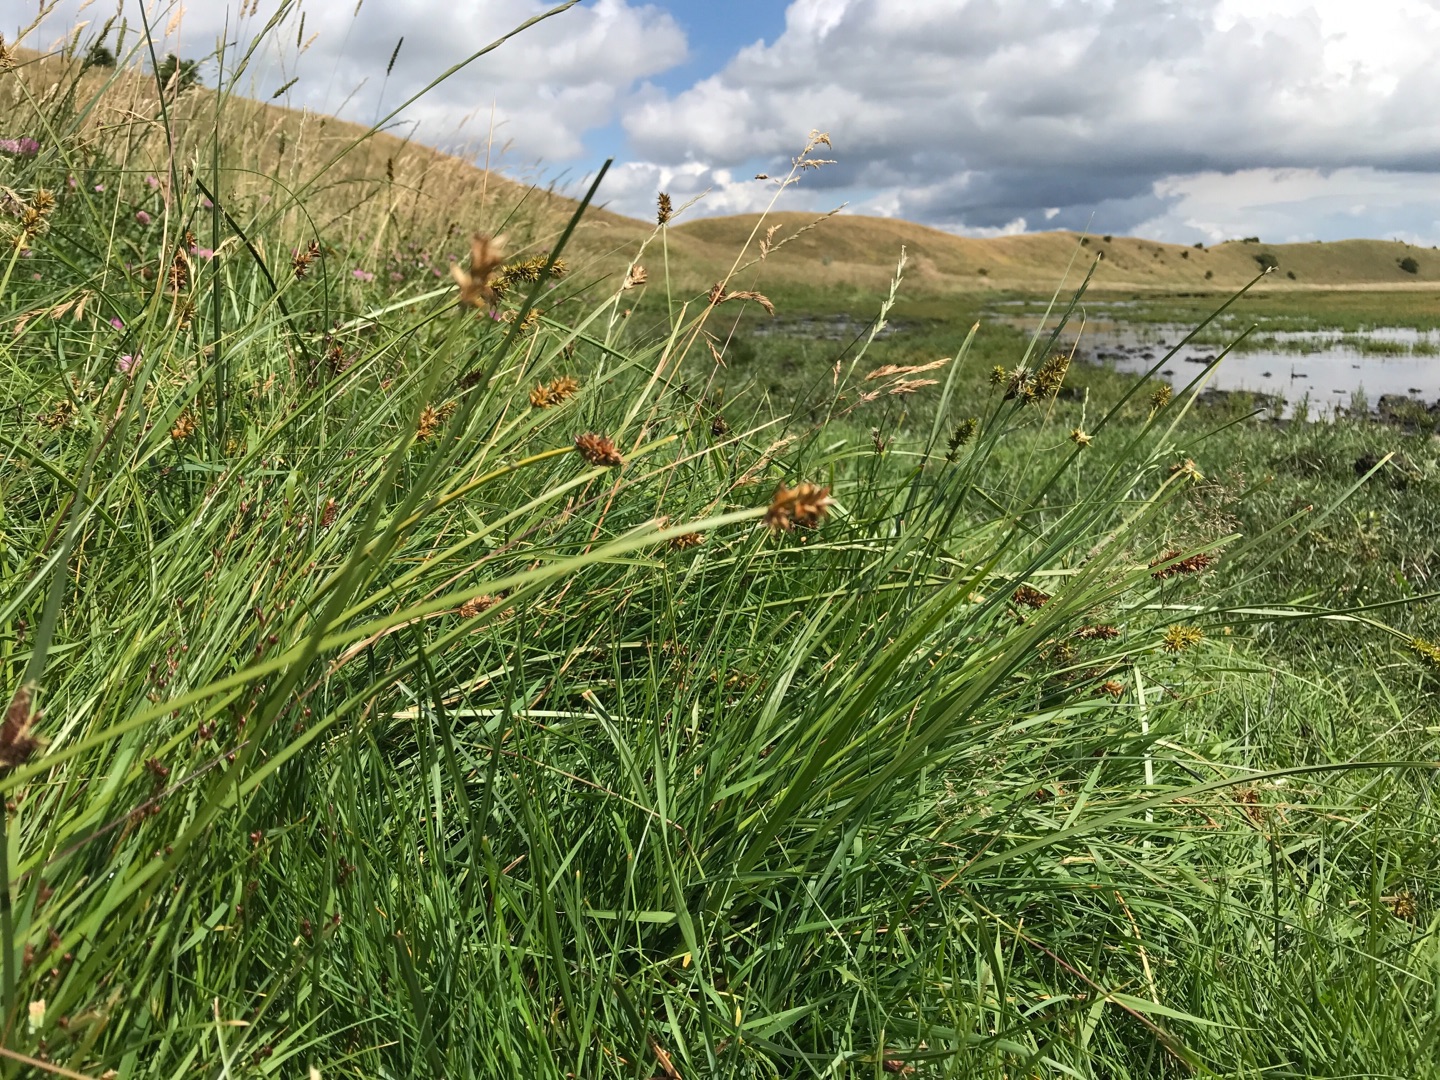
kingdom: Plantae
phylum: Tracheophyta
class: Liliopsida
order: Poales
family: Cyperaceae
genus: Carex
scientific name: Carex otrubae
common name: Sylt-star
